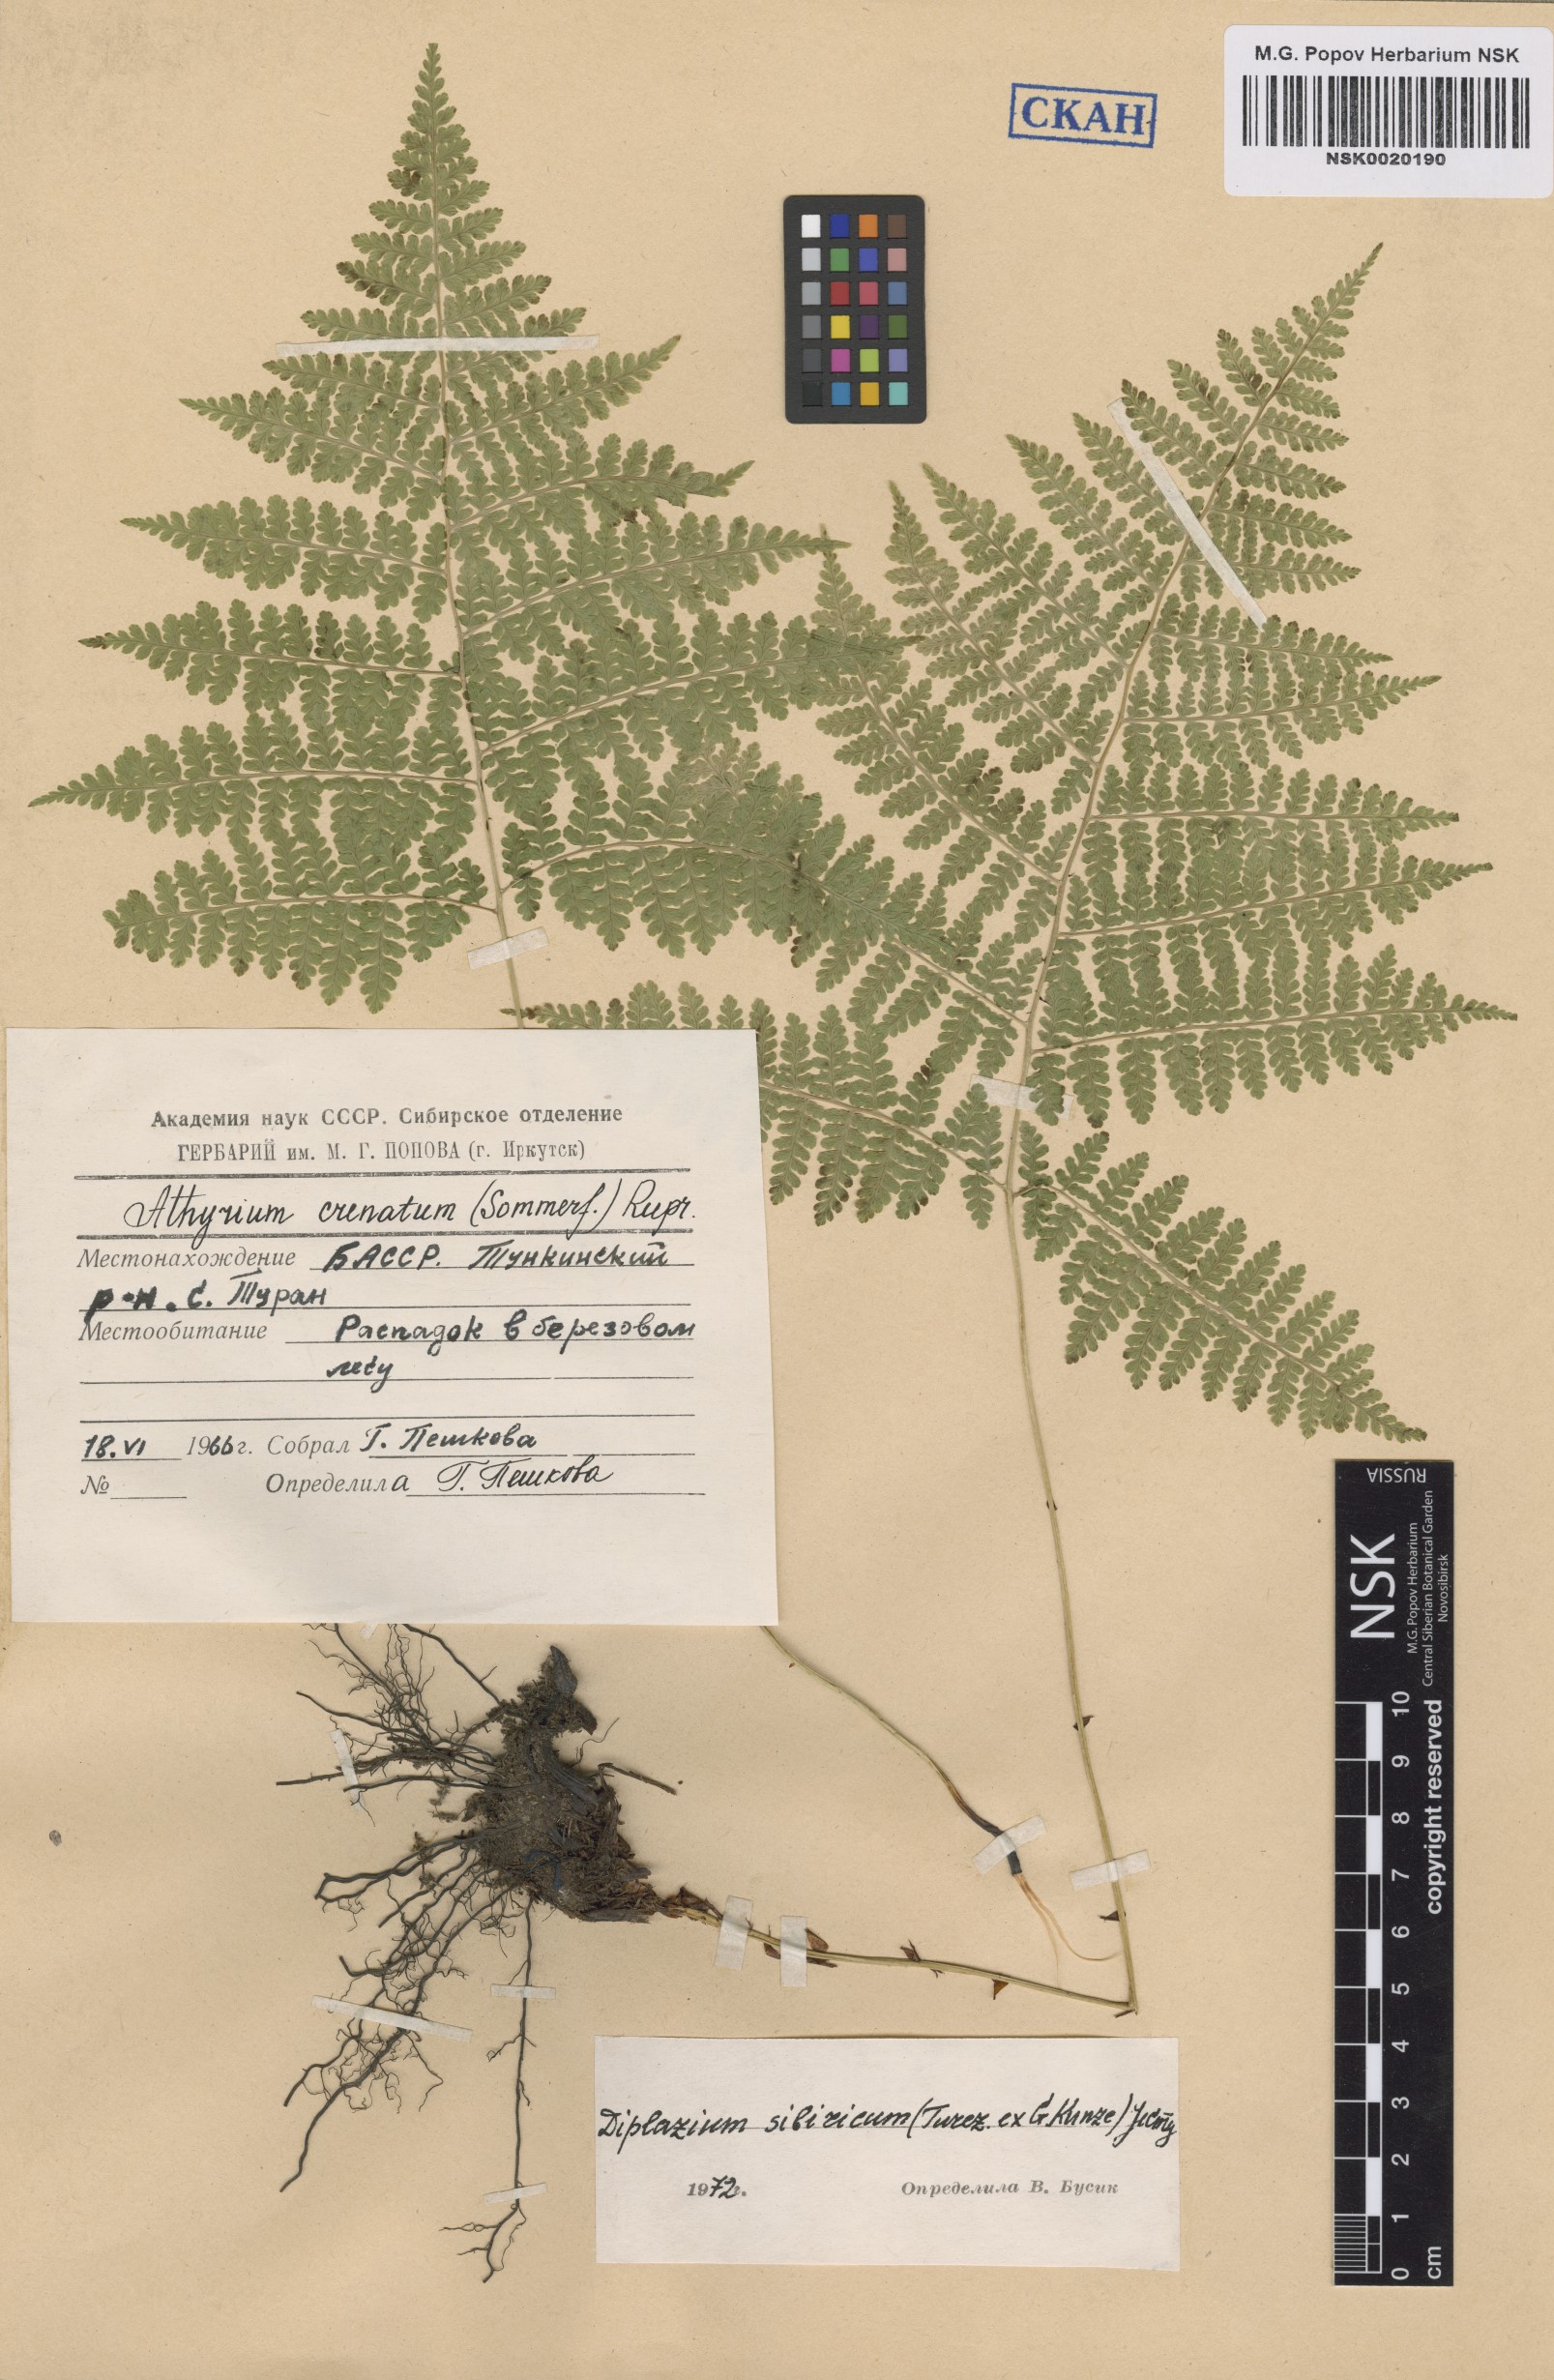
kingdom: Plantae
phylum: Tracheophyta
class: Polypodiopsida
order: Polypodiales
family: Athyriaceae
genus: Diplazium
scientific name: Diplazium sibiricum
